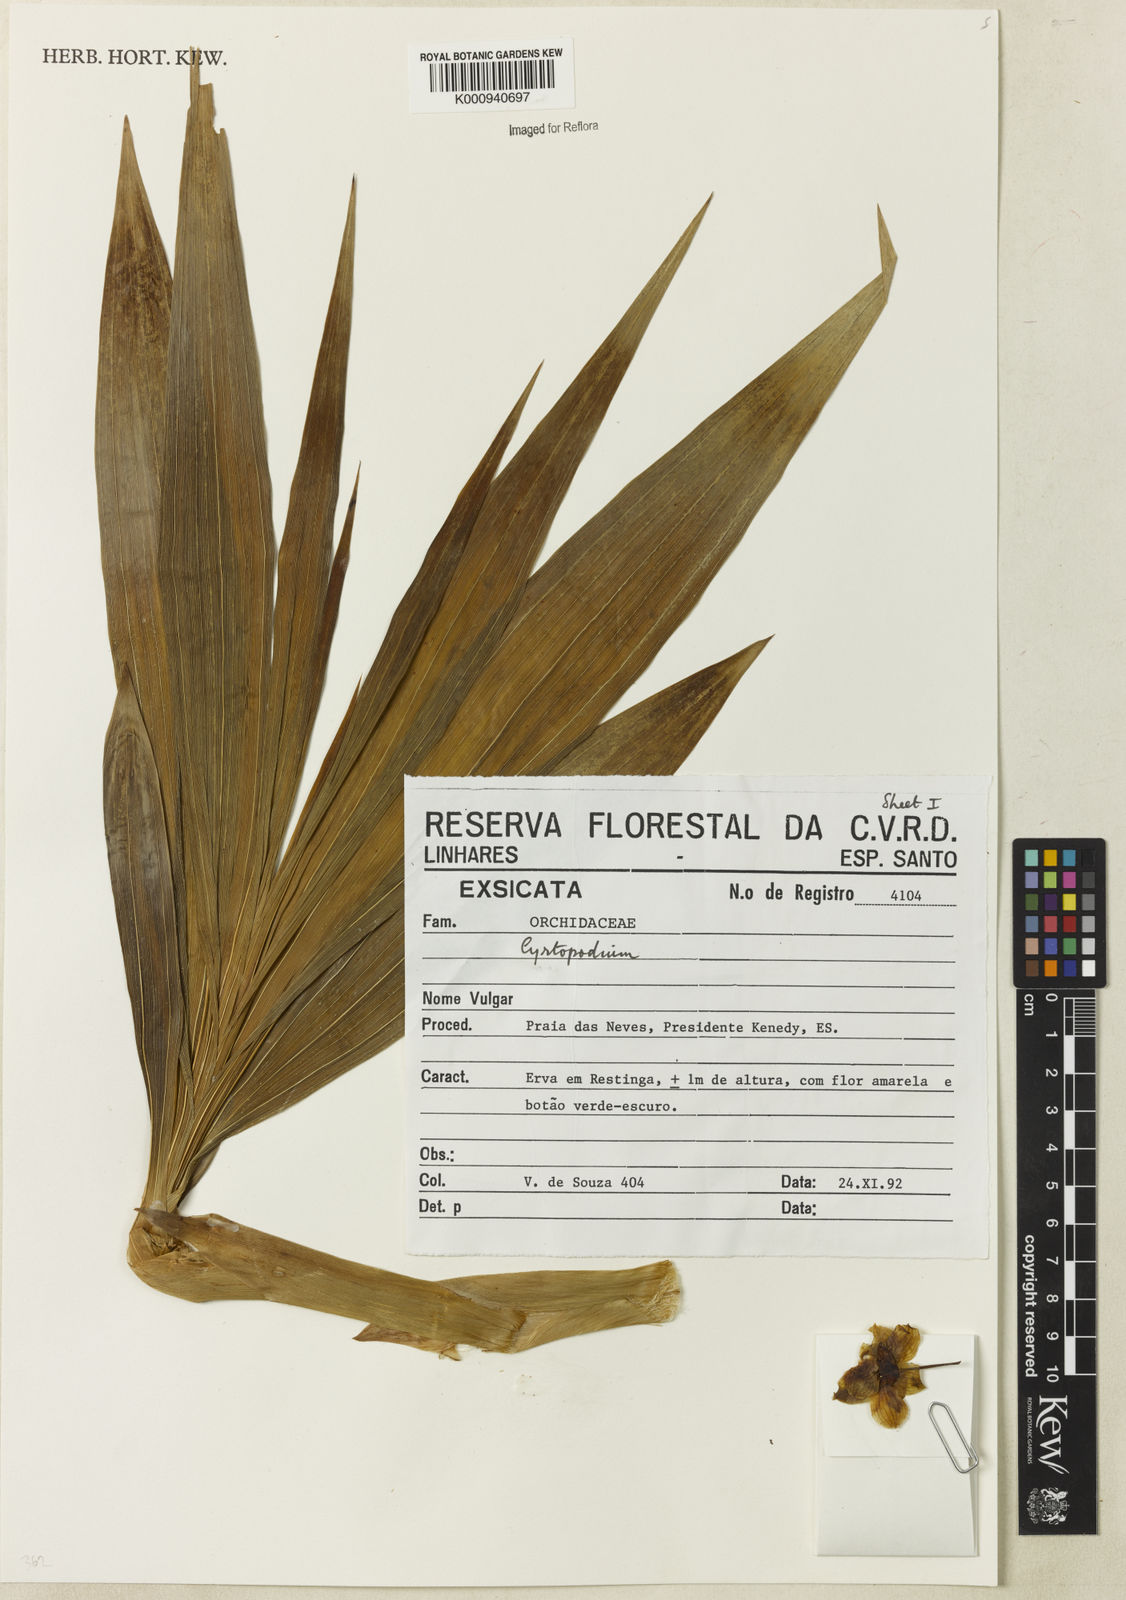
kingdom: Plantae
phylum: Tracheophyta
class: Liliopsida
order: Asparagales
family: Orchidaceae
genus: Cyrtopodium
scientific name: Cyrtopodium
